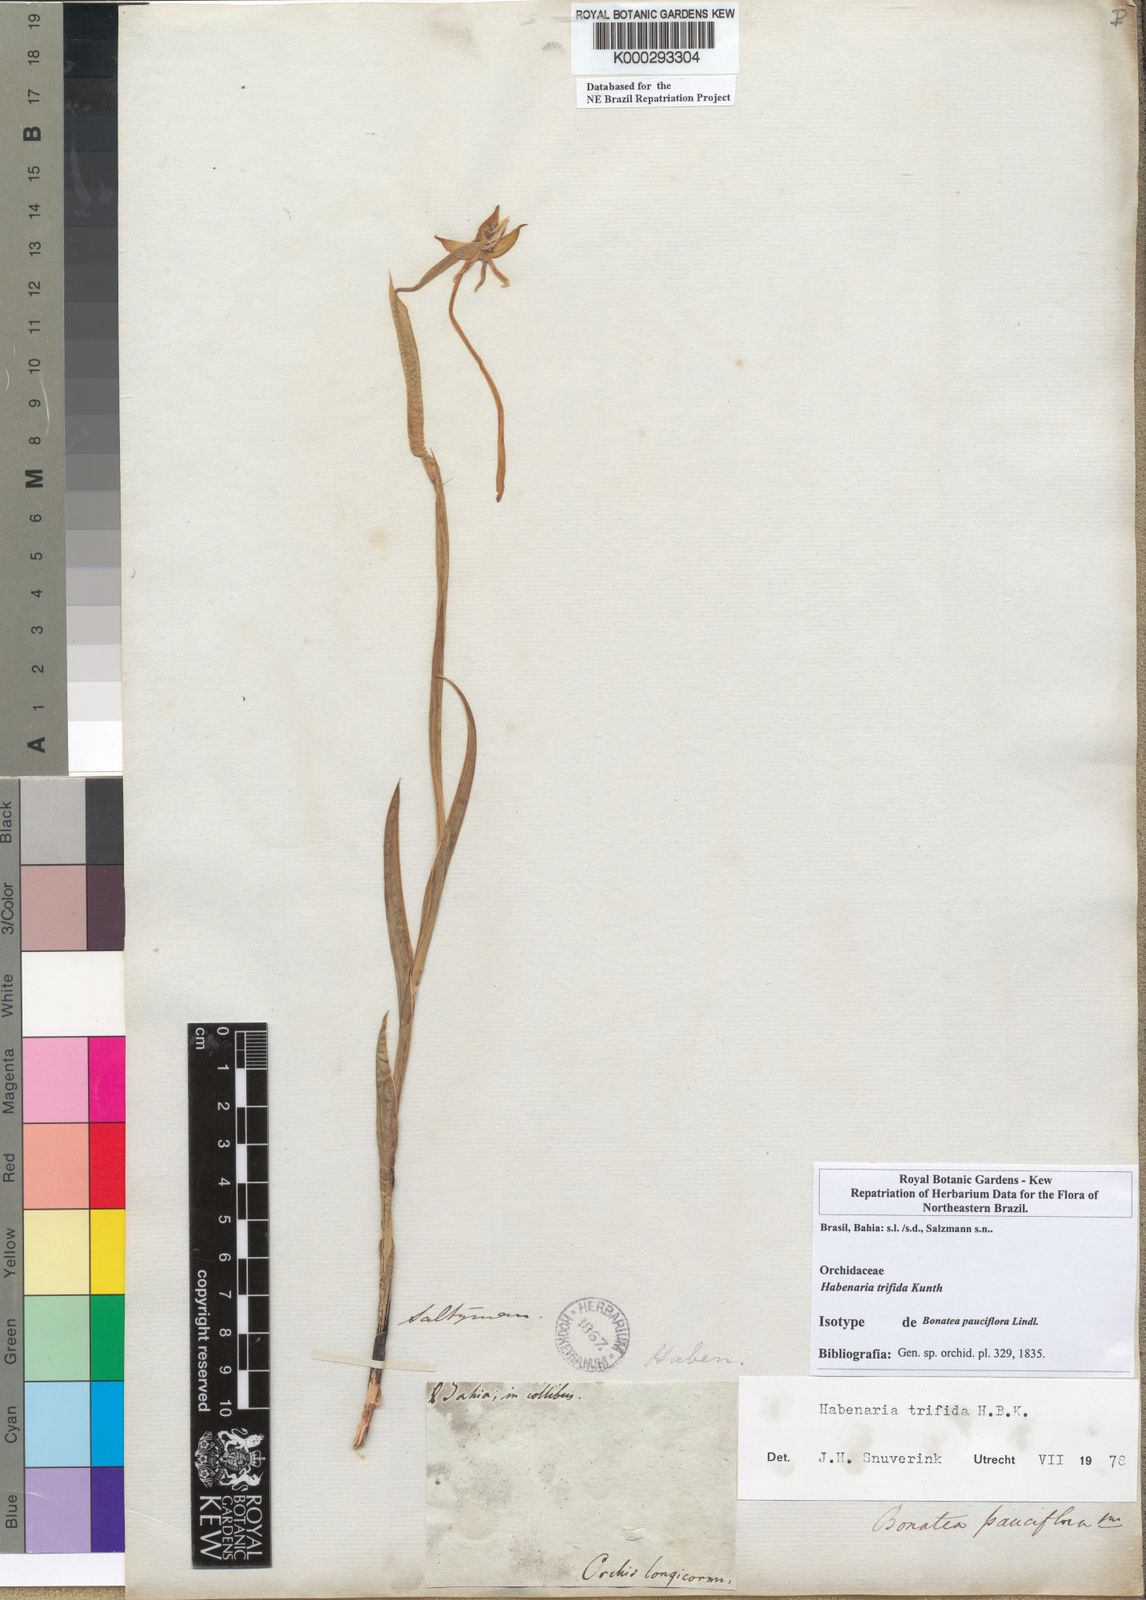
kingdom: Plantae
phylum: Tracheophyta
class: Liliopsida
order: Asparagales
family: Orchidaceae
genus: Habenaria
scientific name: Habenaria trifida
